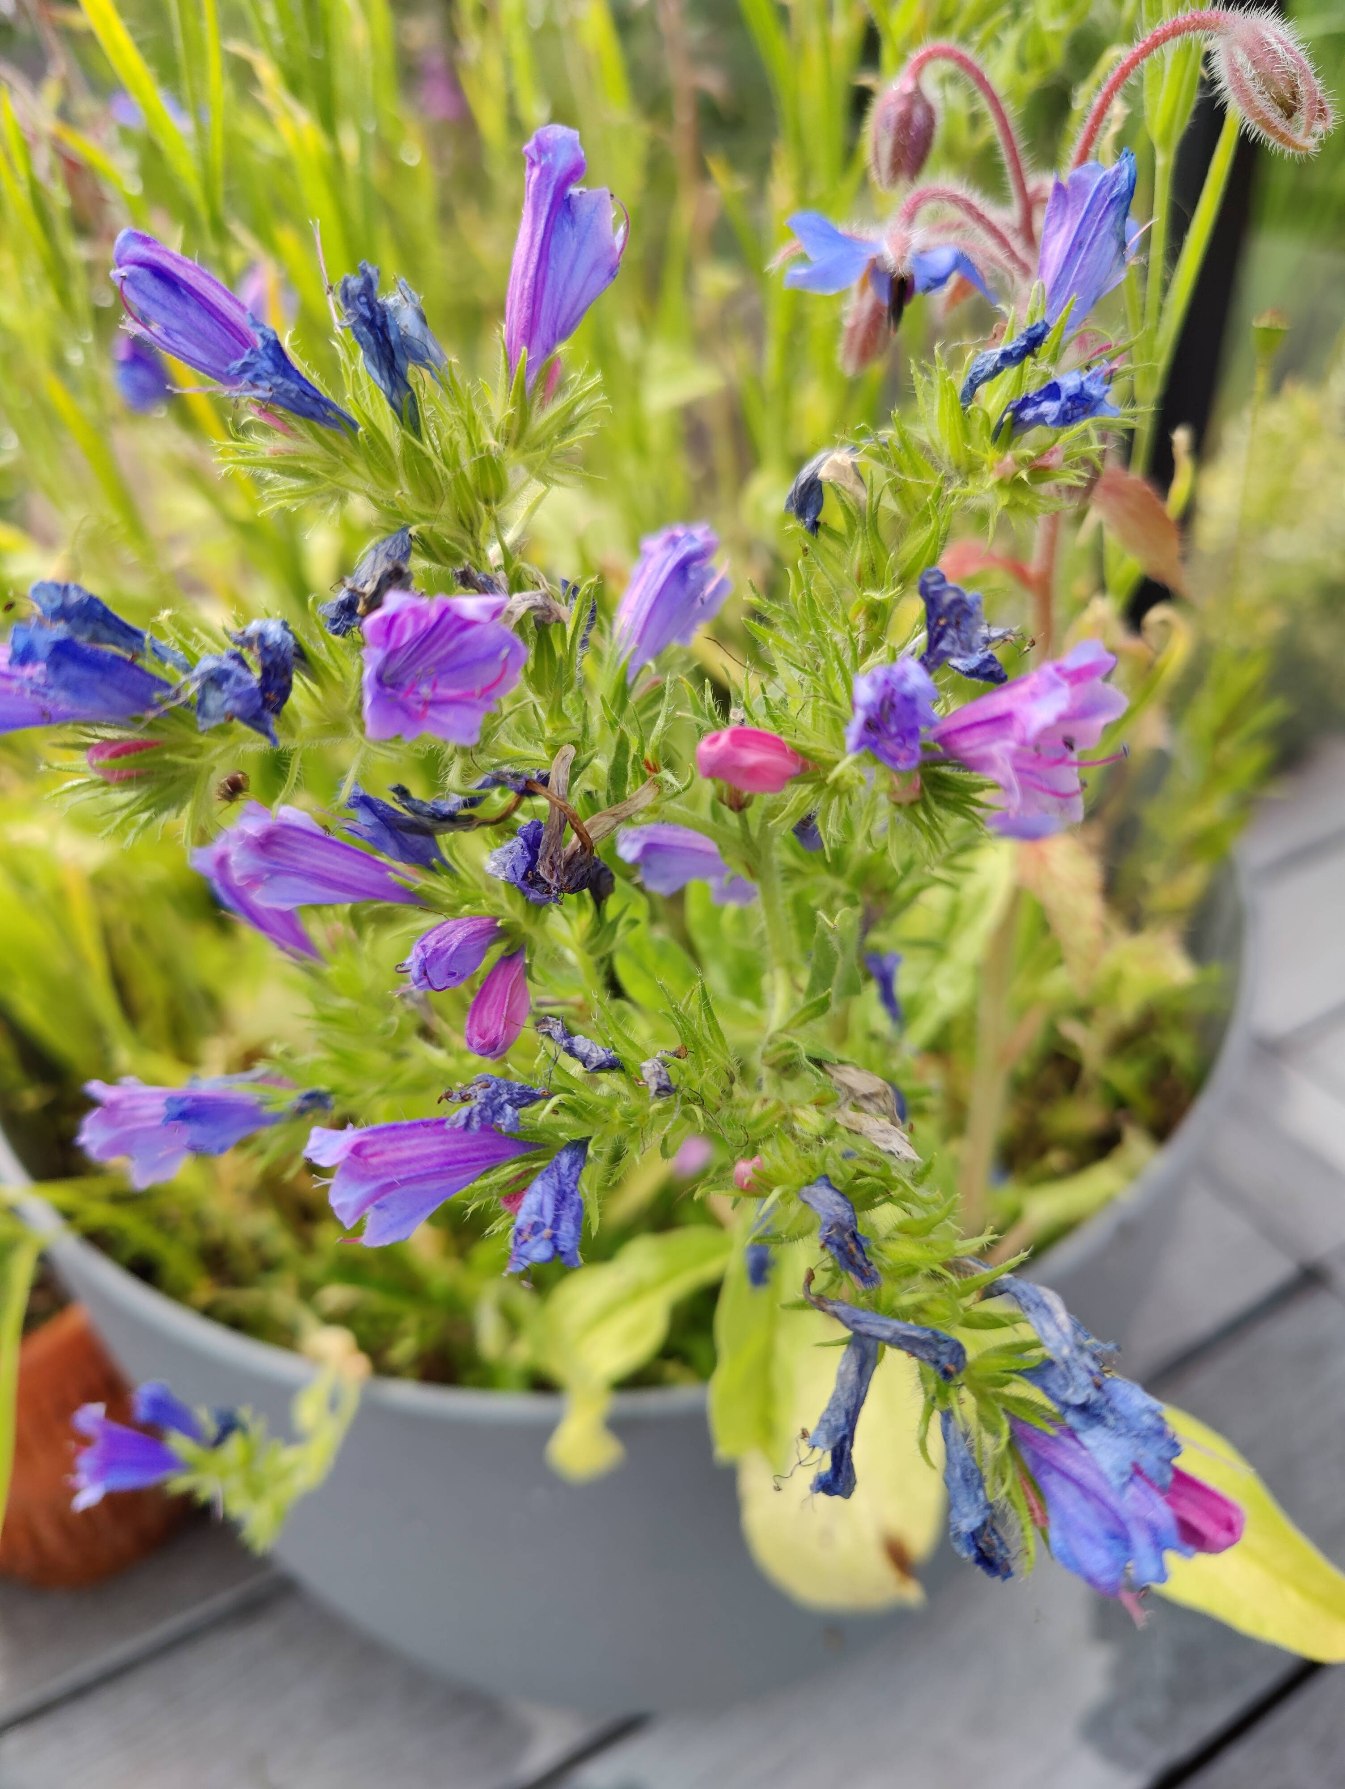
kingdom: Plantae
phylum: Tracheophyta
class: Magnoliopsida
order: Boraginales
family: Boraginaceae
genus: Echium
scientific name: Echium plantagineum
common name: Vejbred-slangehoved
